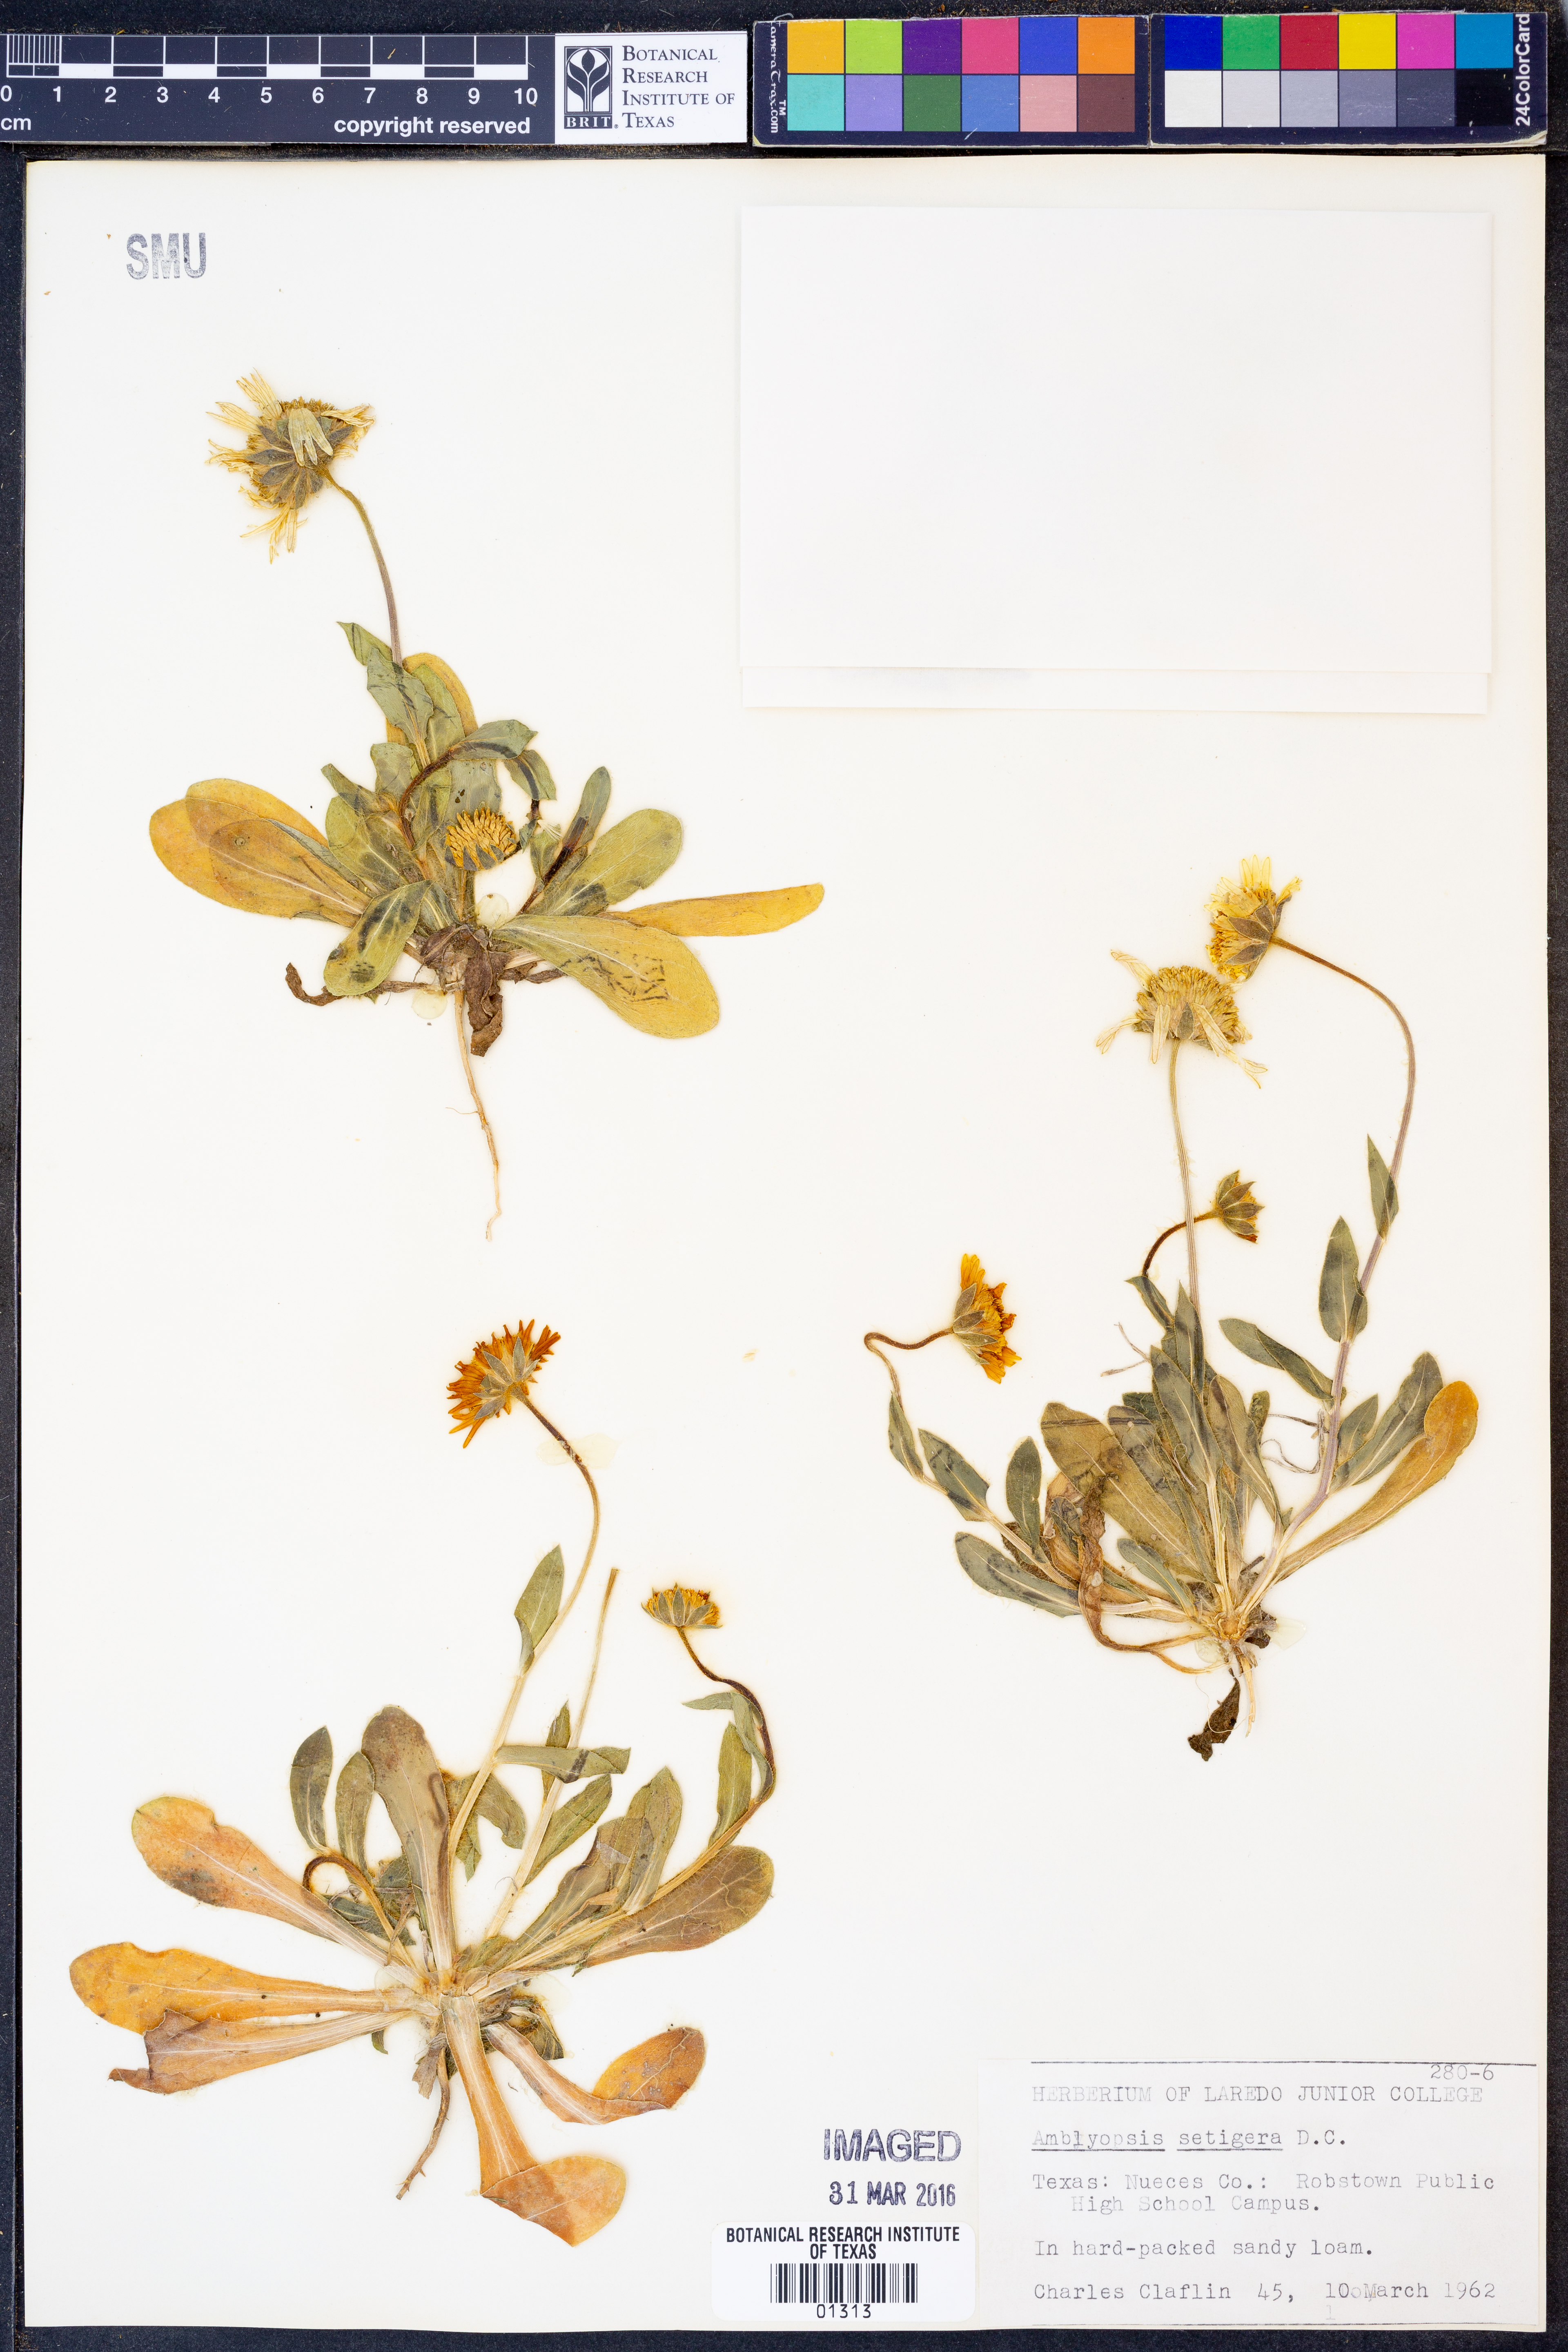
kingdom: Plantae
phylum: Tracheophyta
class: Magnoliopsida
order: Asterales
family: Asteraceae
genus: Amblyolepis
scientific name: Amblyolepis setigera
